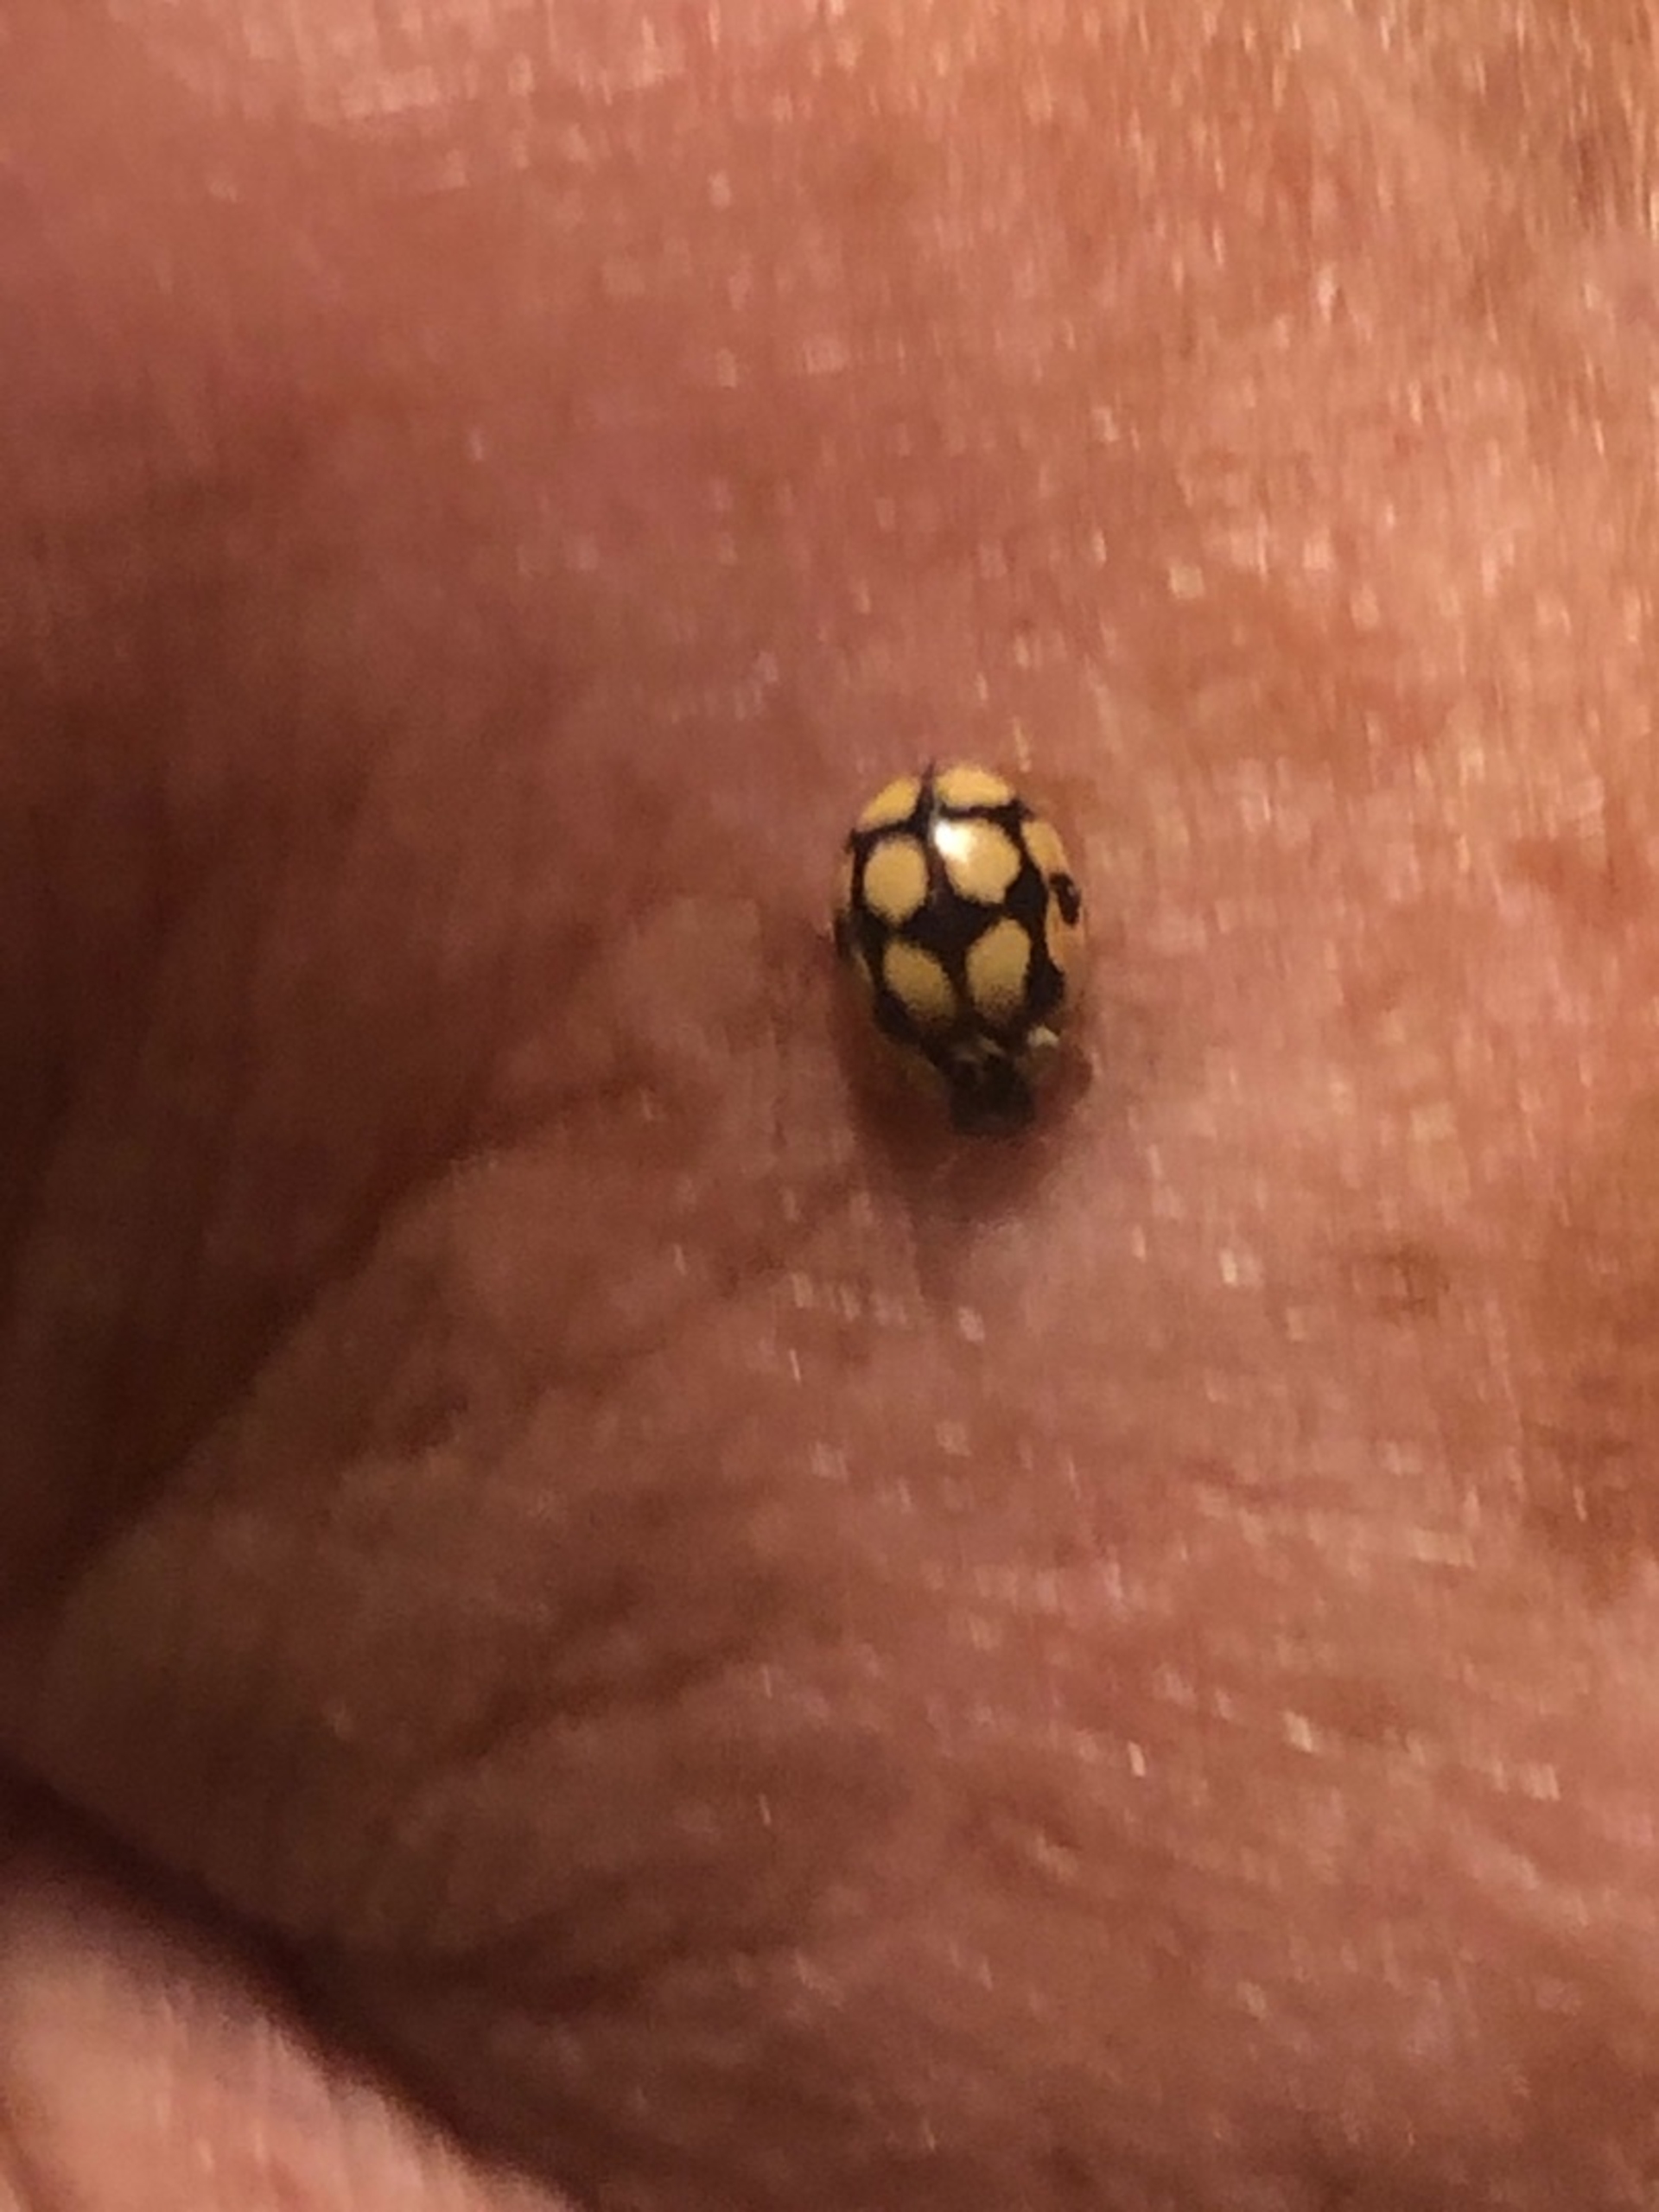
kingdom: Animalia
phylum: Arthropoda
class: Insecta
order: Coleoptera
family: Coccinellidae
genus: Propylaea
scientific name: Propylaea quatuordecimpunctata
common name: Skakbræt
